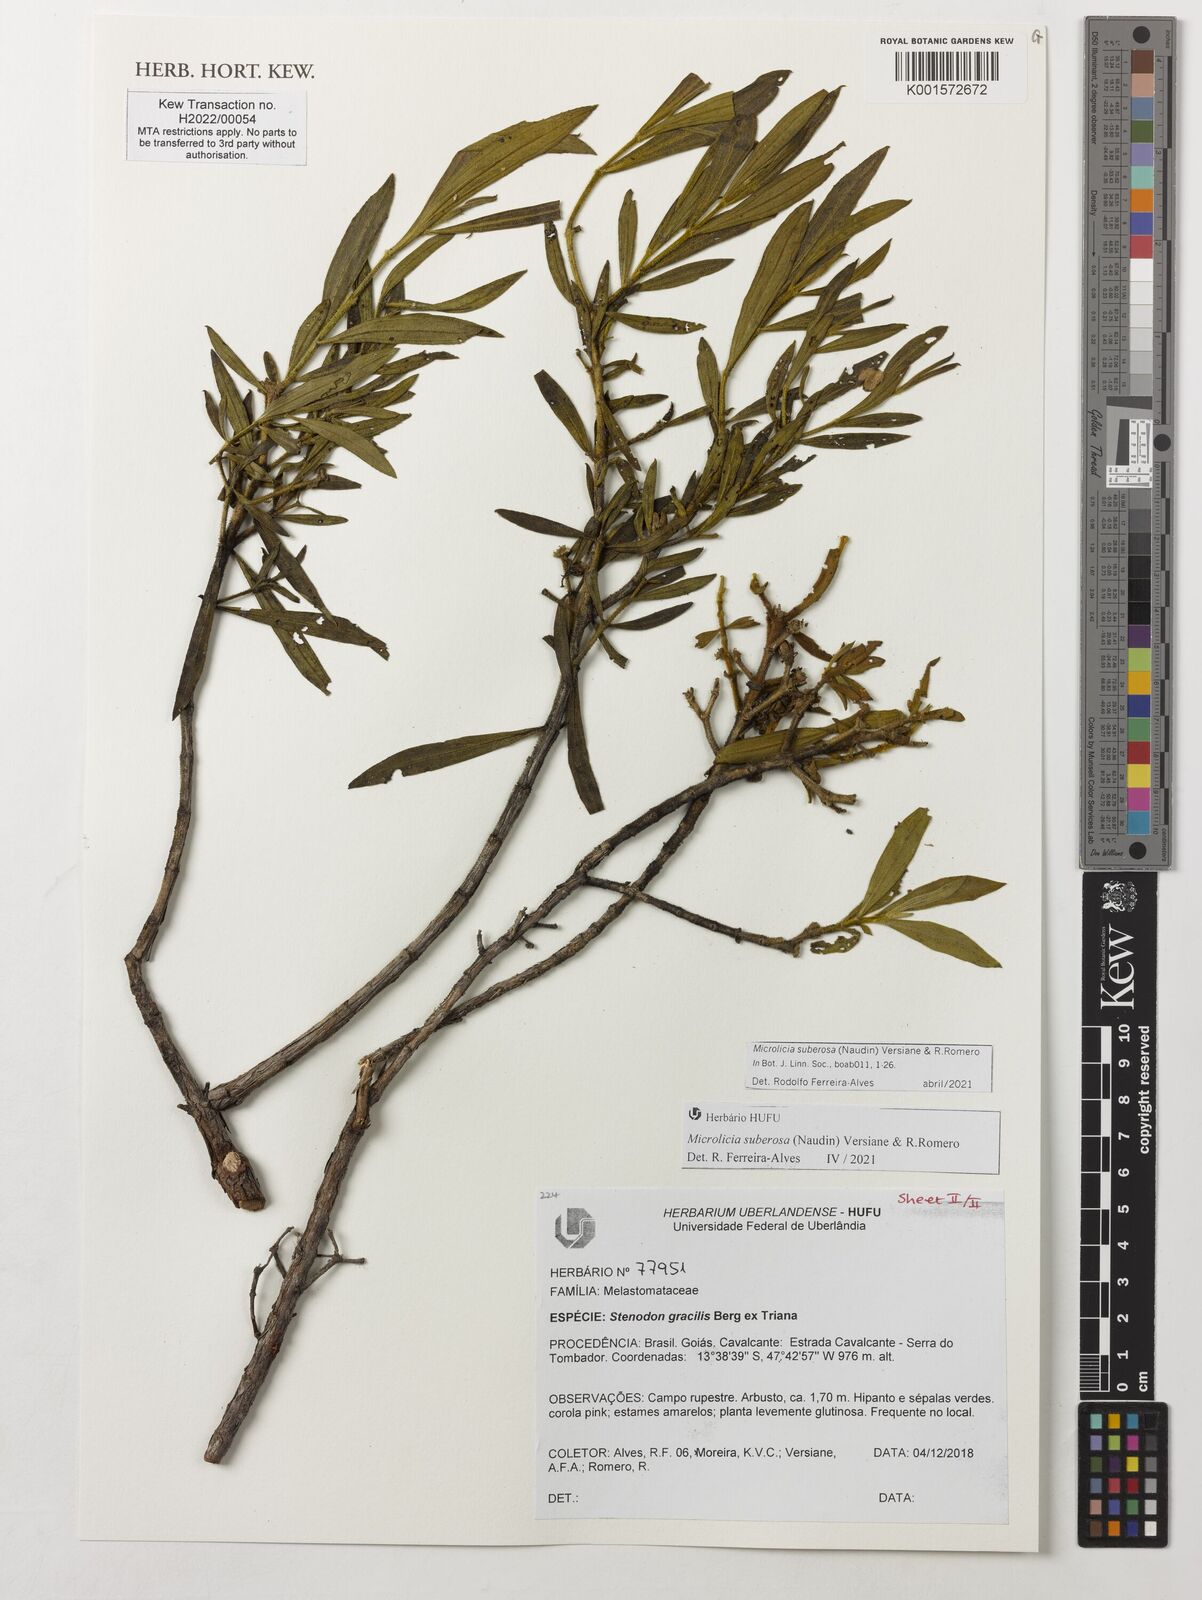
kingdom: Plantae
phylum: Tracheophyta
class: Magnoliopsida
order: Myrtales
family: Melastomataceae
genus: Microlicia
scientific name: Microlicia suberosa
